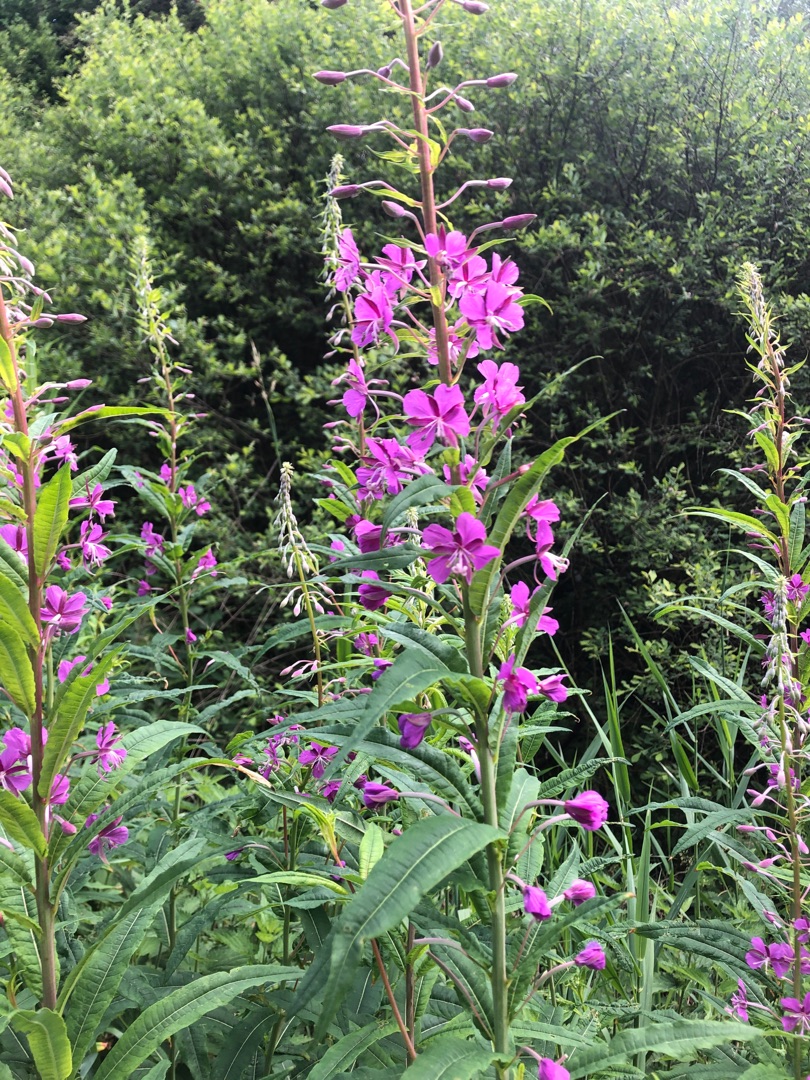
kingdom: Plantae
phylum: Tracheophyta
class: Magnoliopsida
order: Myrtales
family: Onagraceae
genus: Chamaenerion
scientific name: Chamaenerion angustifolium
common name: Gederams
